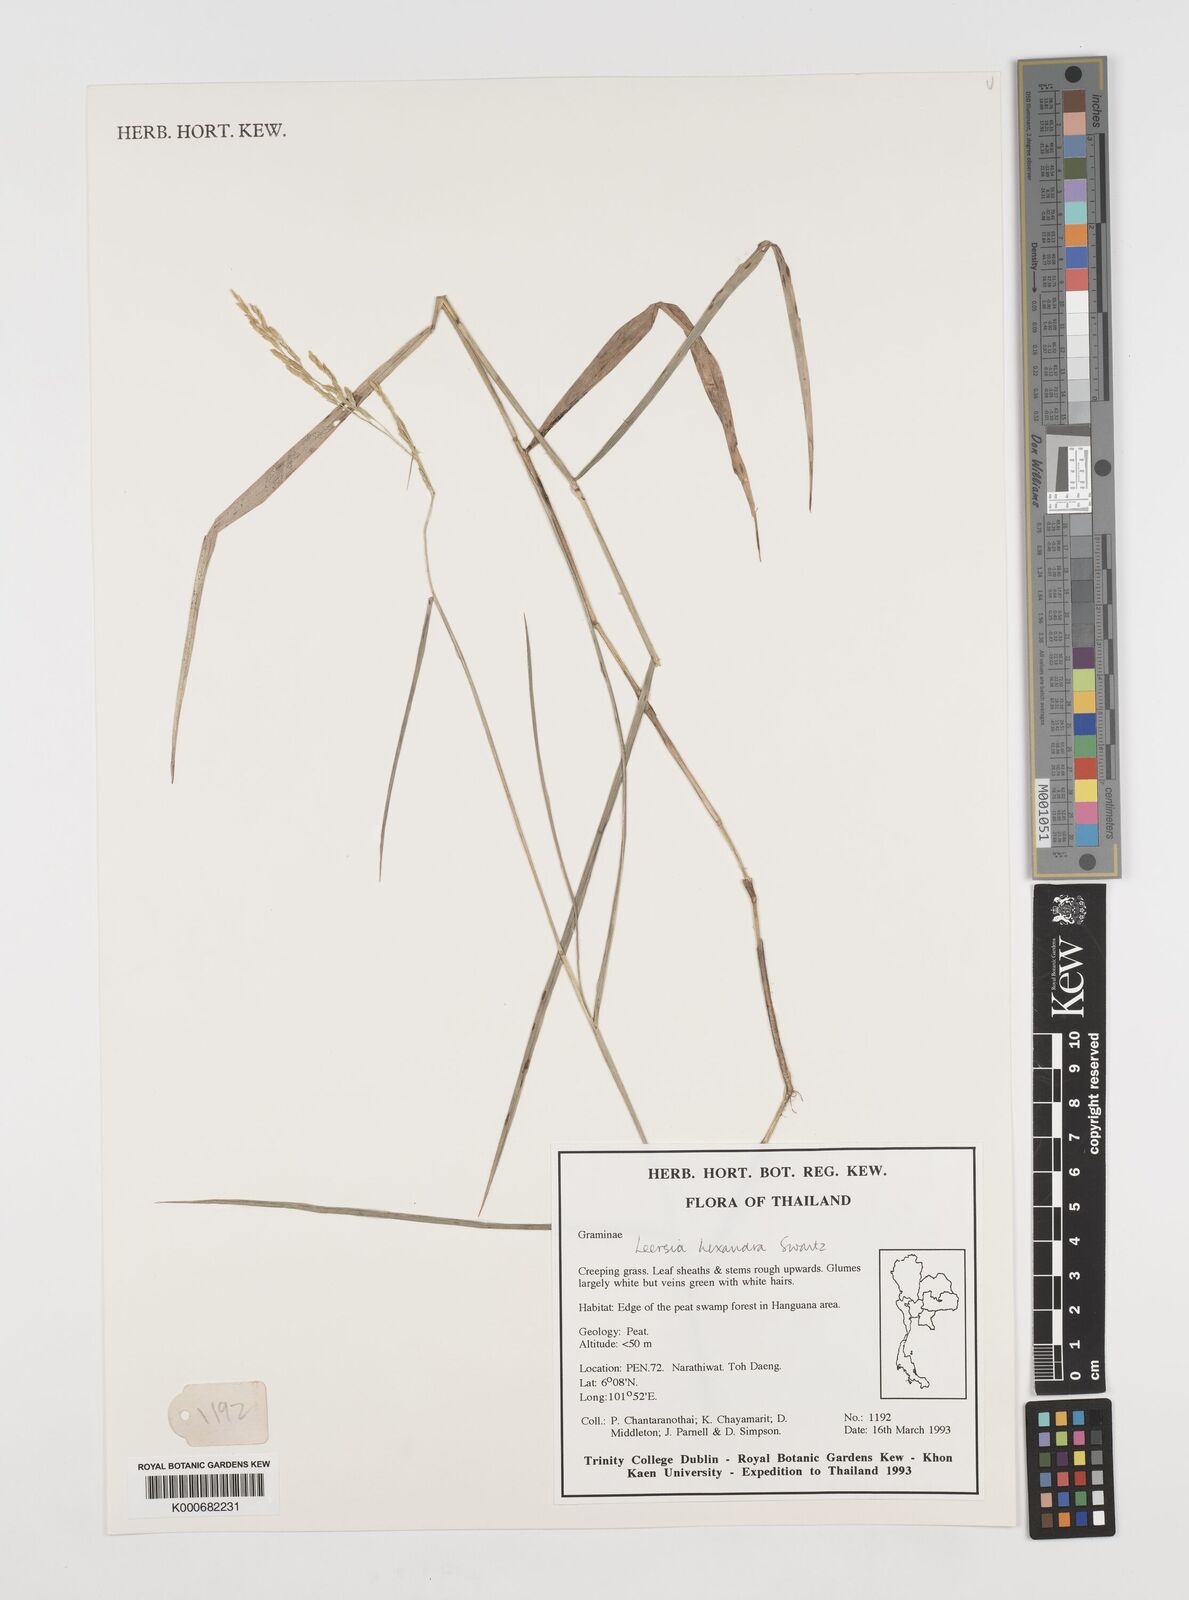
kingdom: Plantae
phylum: Tracheophyta
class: Liliopsida
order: Poales
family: Poaceae
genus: Leersia
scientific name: Leersia hexandra
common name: Southern cut grass
